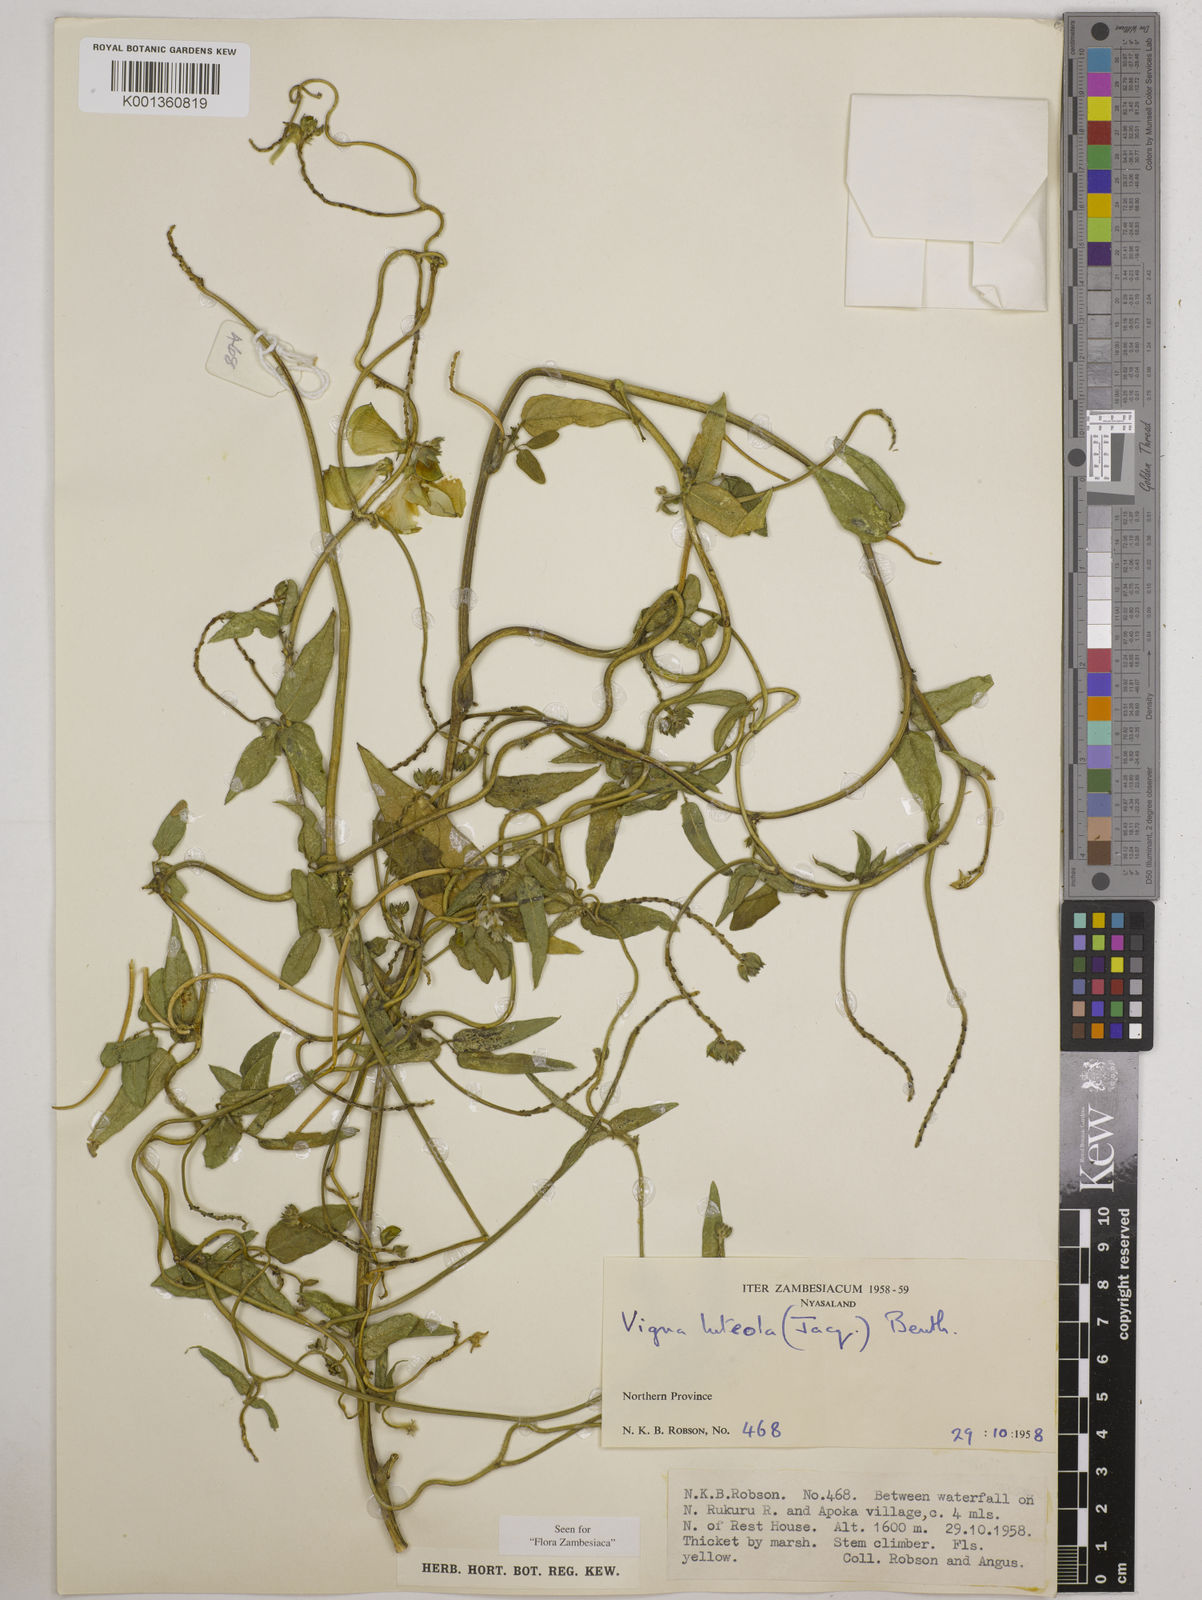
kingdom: Plantae
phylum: Tracheophyta
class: Magnoliopsida
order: Fabales
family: Fabaceae
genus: Vigna
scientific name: Vigna luteola
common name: Hairypod cowpea
